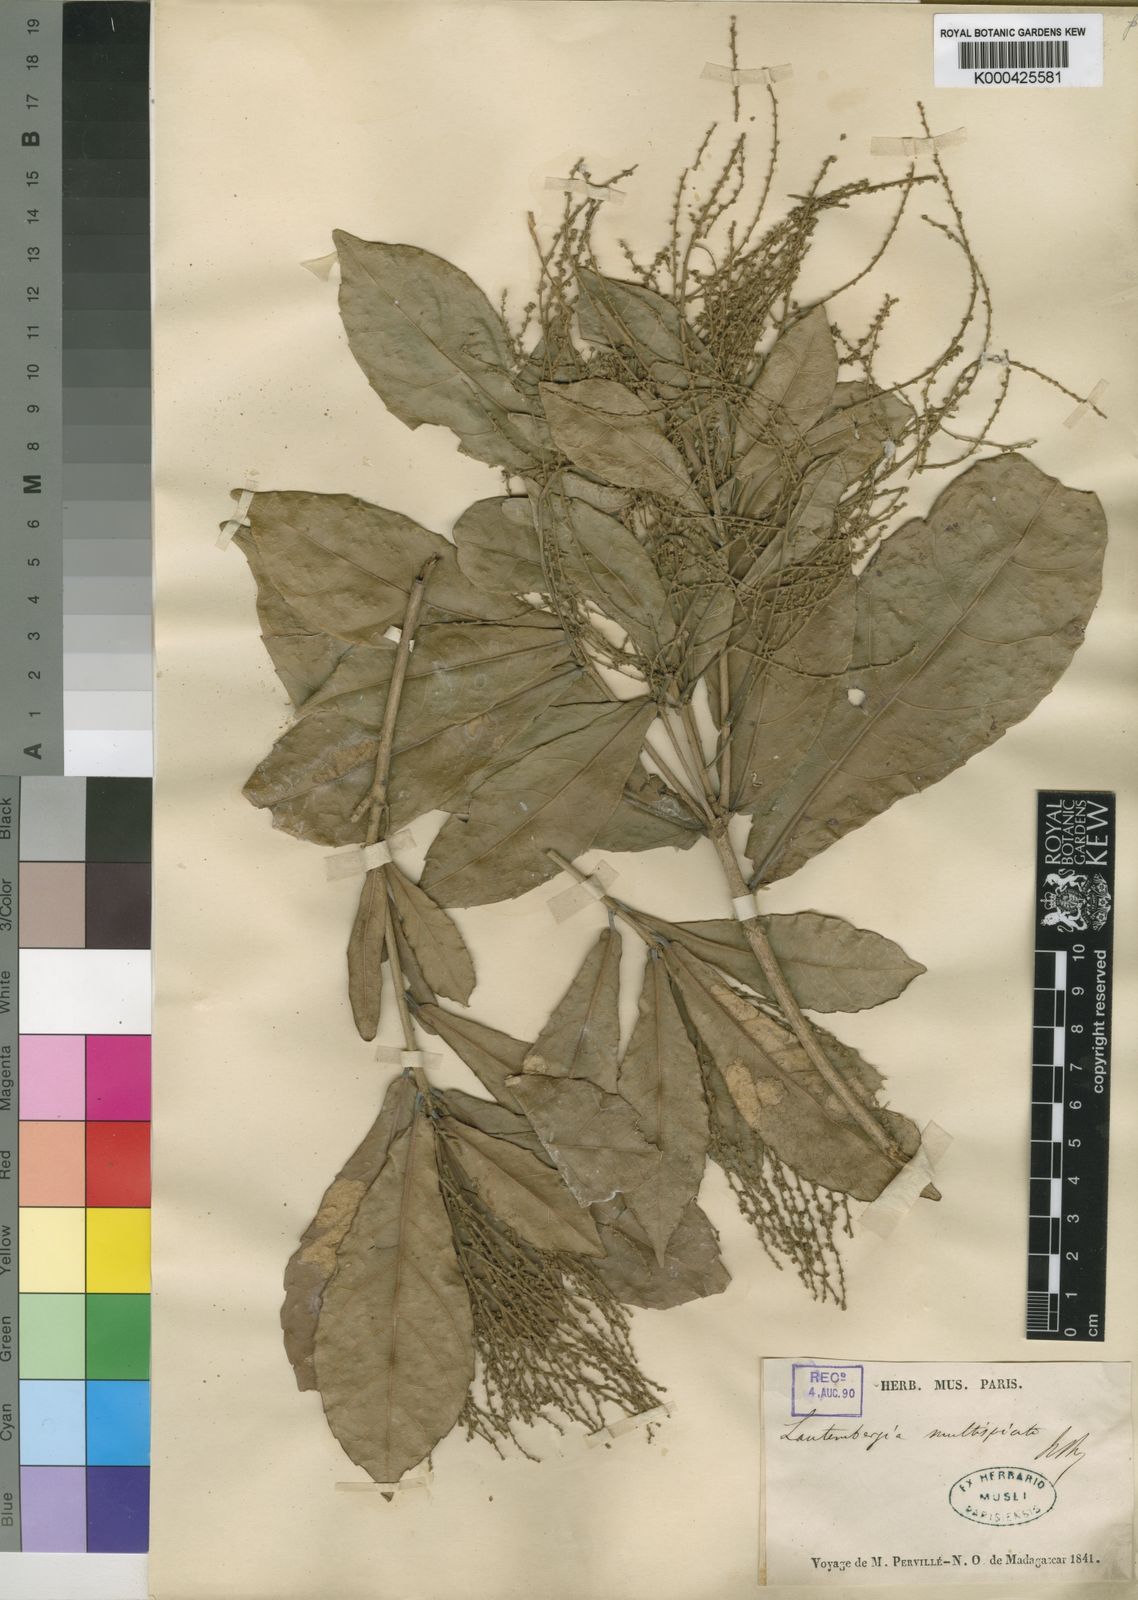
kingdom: Plantae
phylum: Tracheophyta
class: Magnoliopsida
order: Malpighiales
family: Euphorbiaceae
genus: Orfilea
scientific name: Orfilea multispicata
